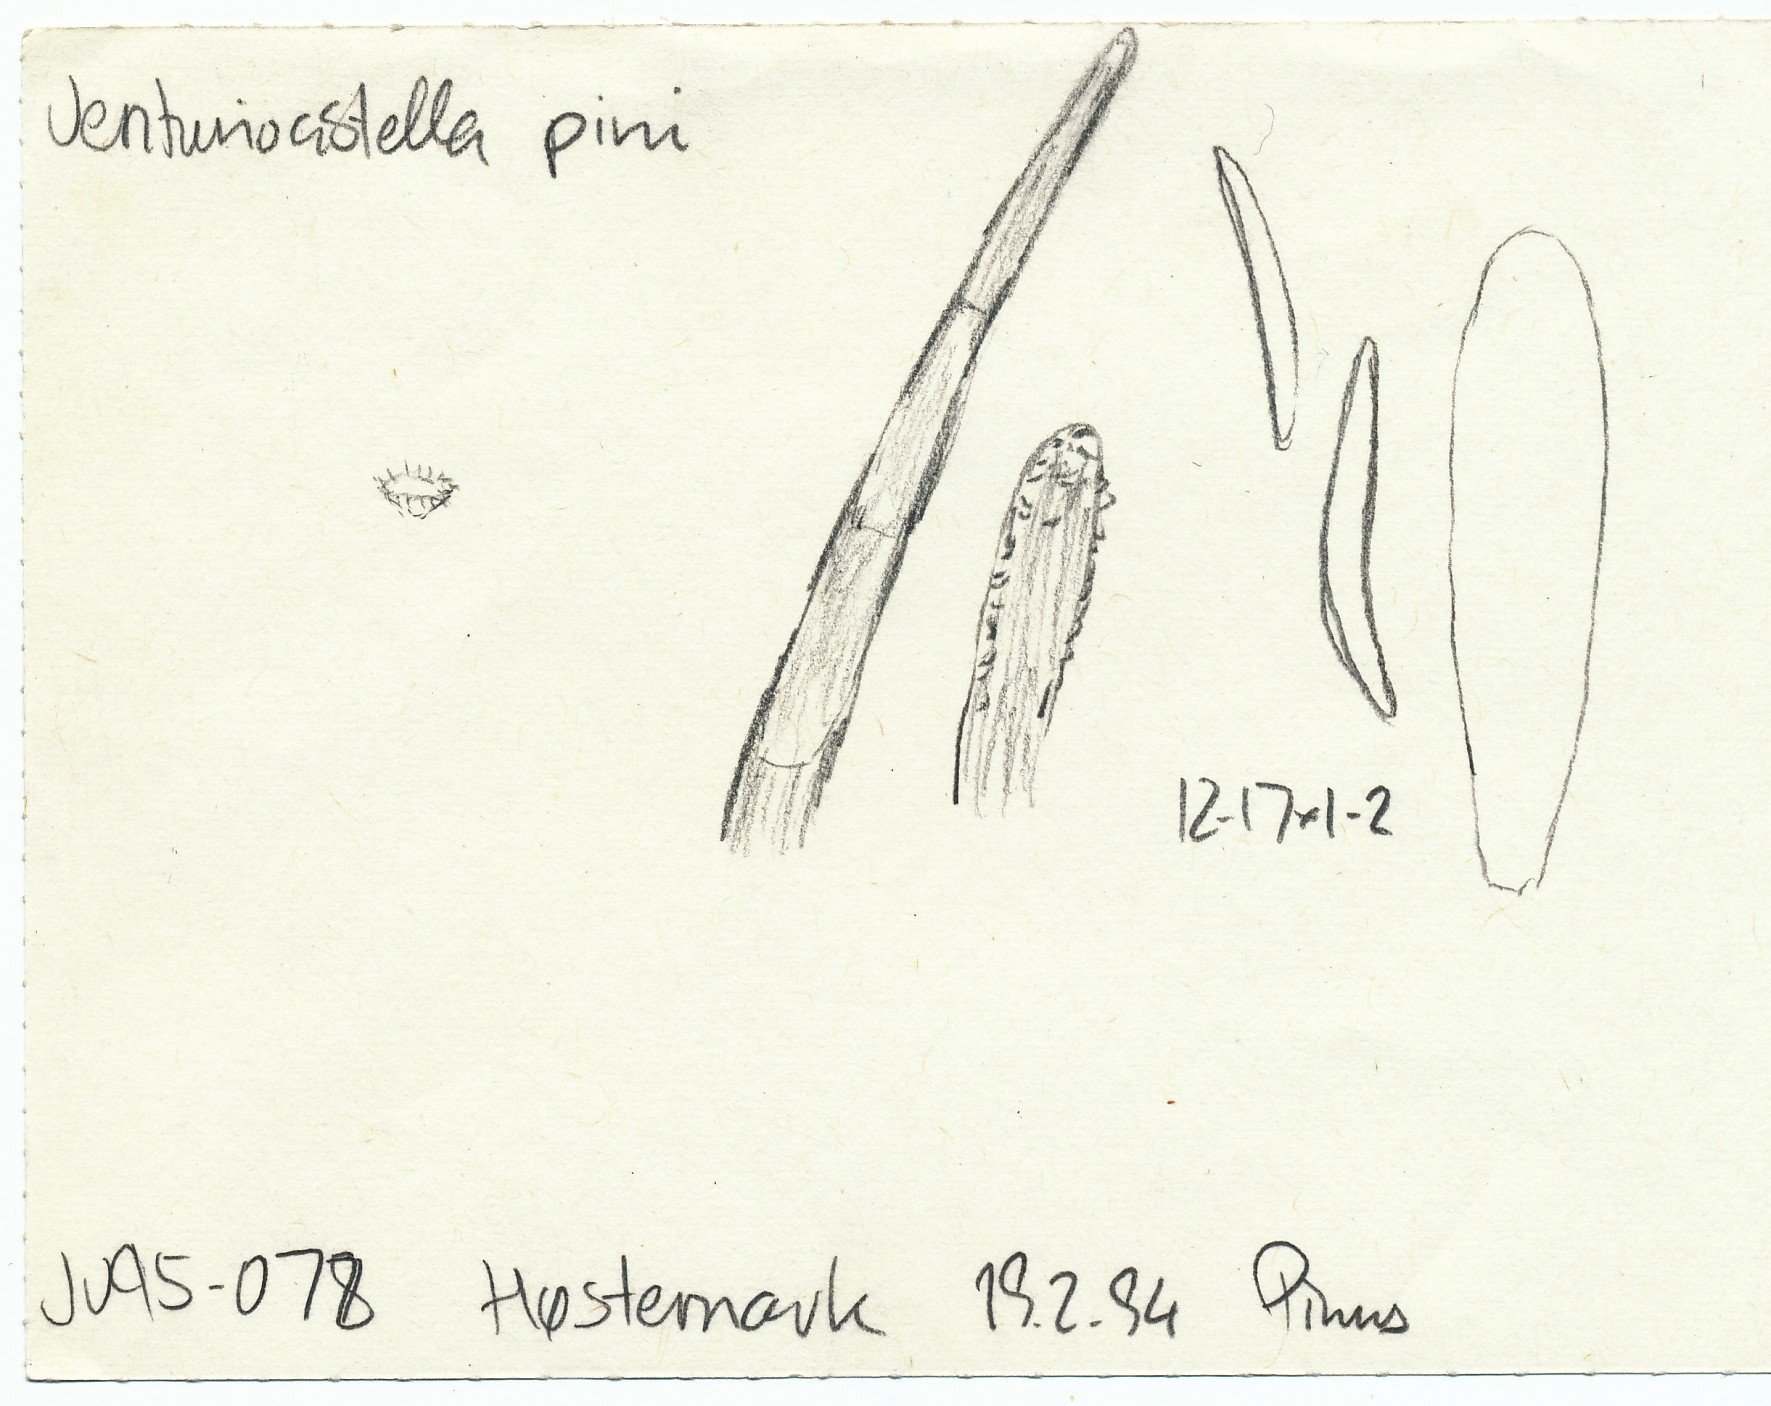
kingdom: Fungi
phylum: Ascomycota
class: Leotiomycetes
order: Helotiales
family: Hyphodiscaceae
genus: Venturiocistella
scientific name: Venturiocistella pini
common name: fyrre-tveskægskive
